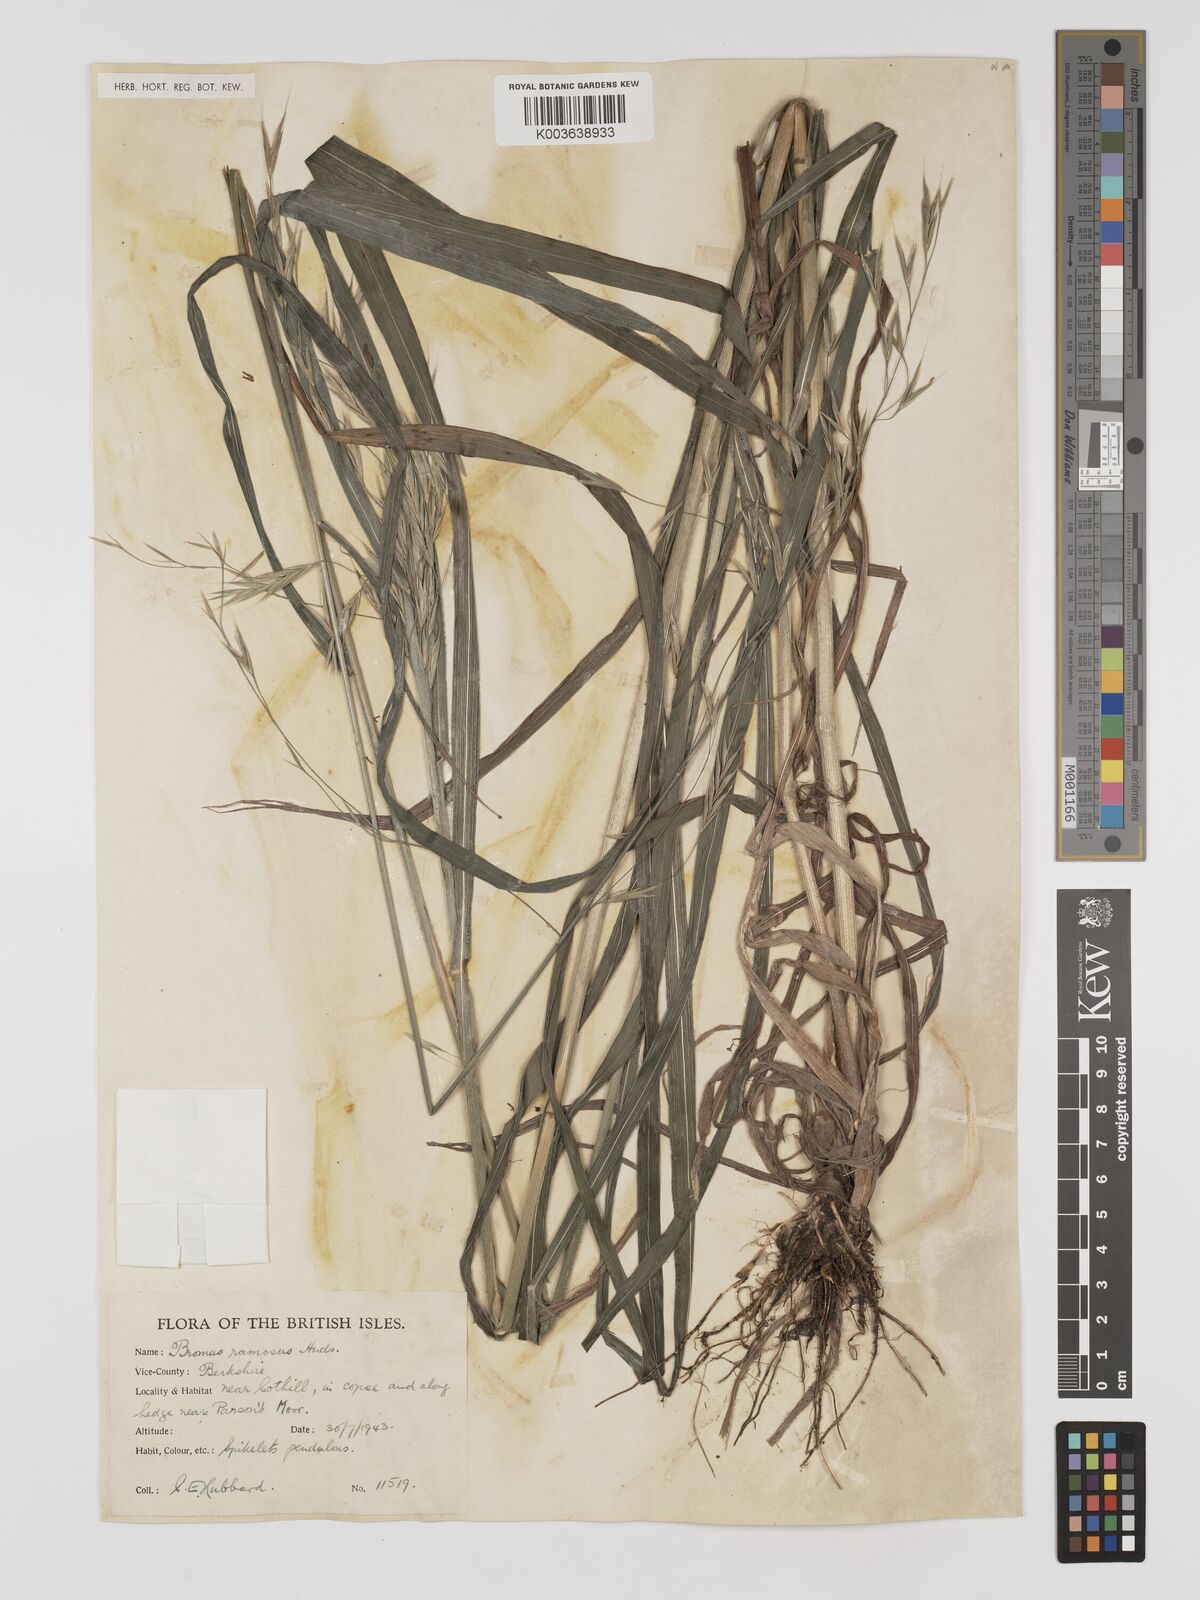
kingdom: Plantae
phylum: Tracheophyta
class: Liliopsida
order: Poales
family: Poaceae
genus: Bromus
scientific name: Bromus ramosus
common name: Hairy brome
